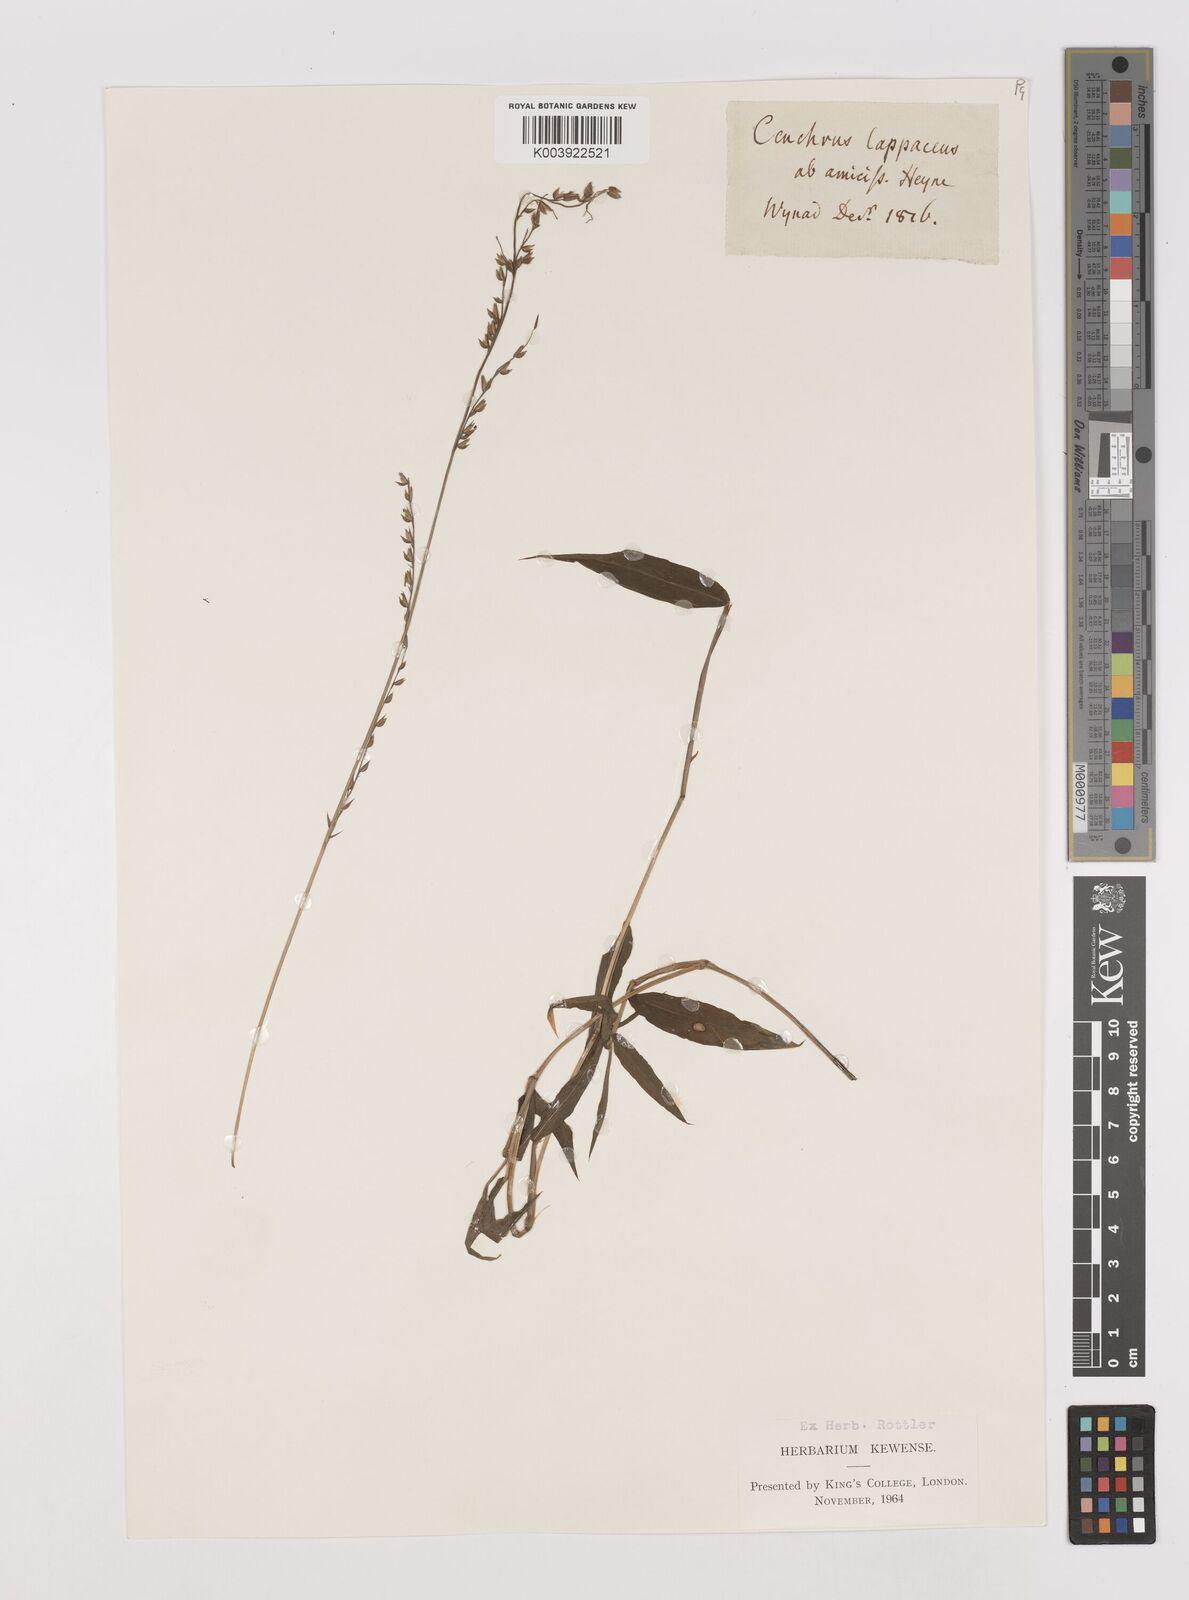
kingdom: Plantae
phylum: Tracheophyta
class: Liliopsida
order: Poales
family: Poaceae
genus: Pseudechinolaena
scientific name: Pseudechinolaena polystachya
